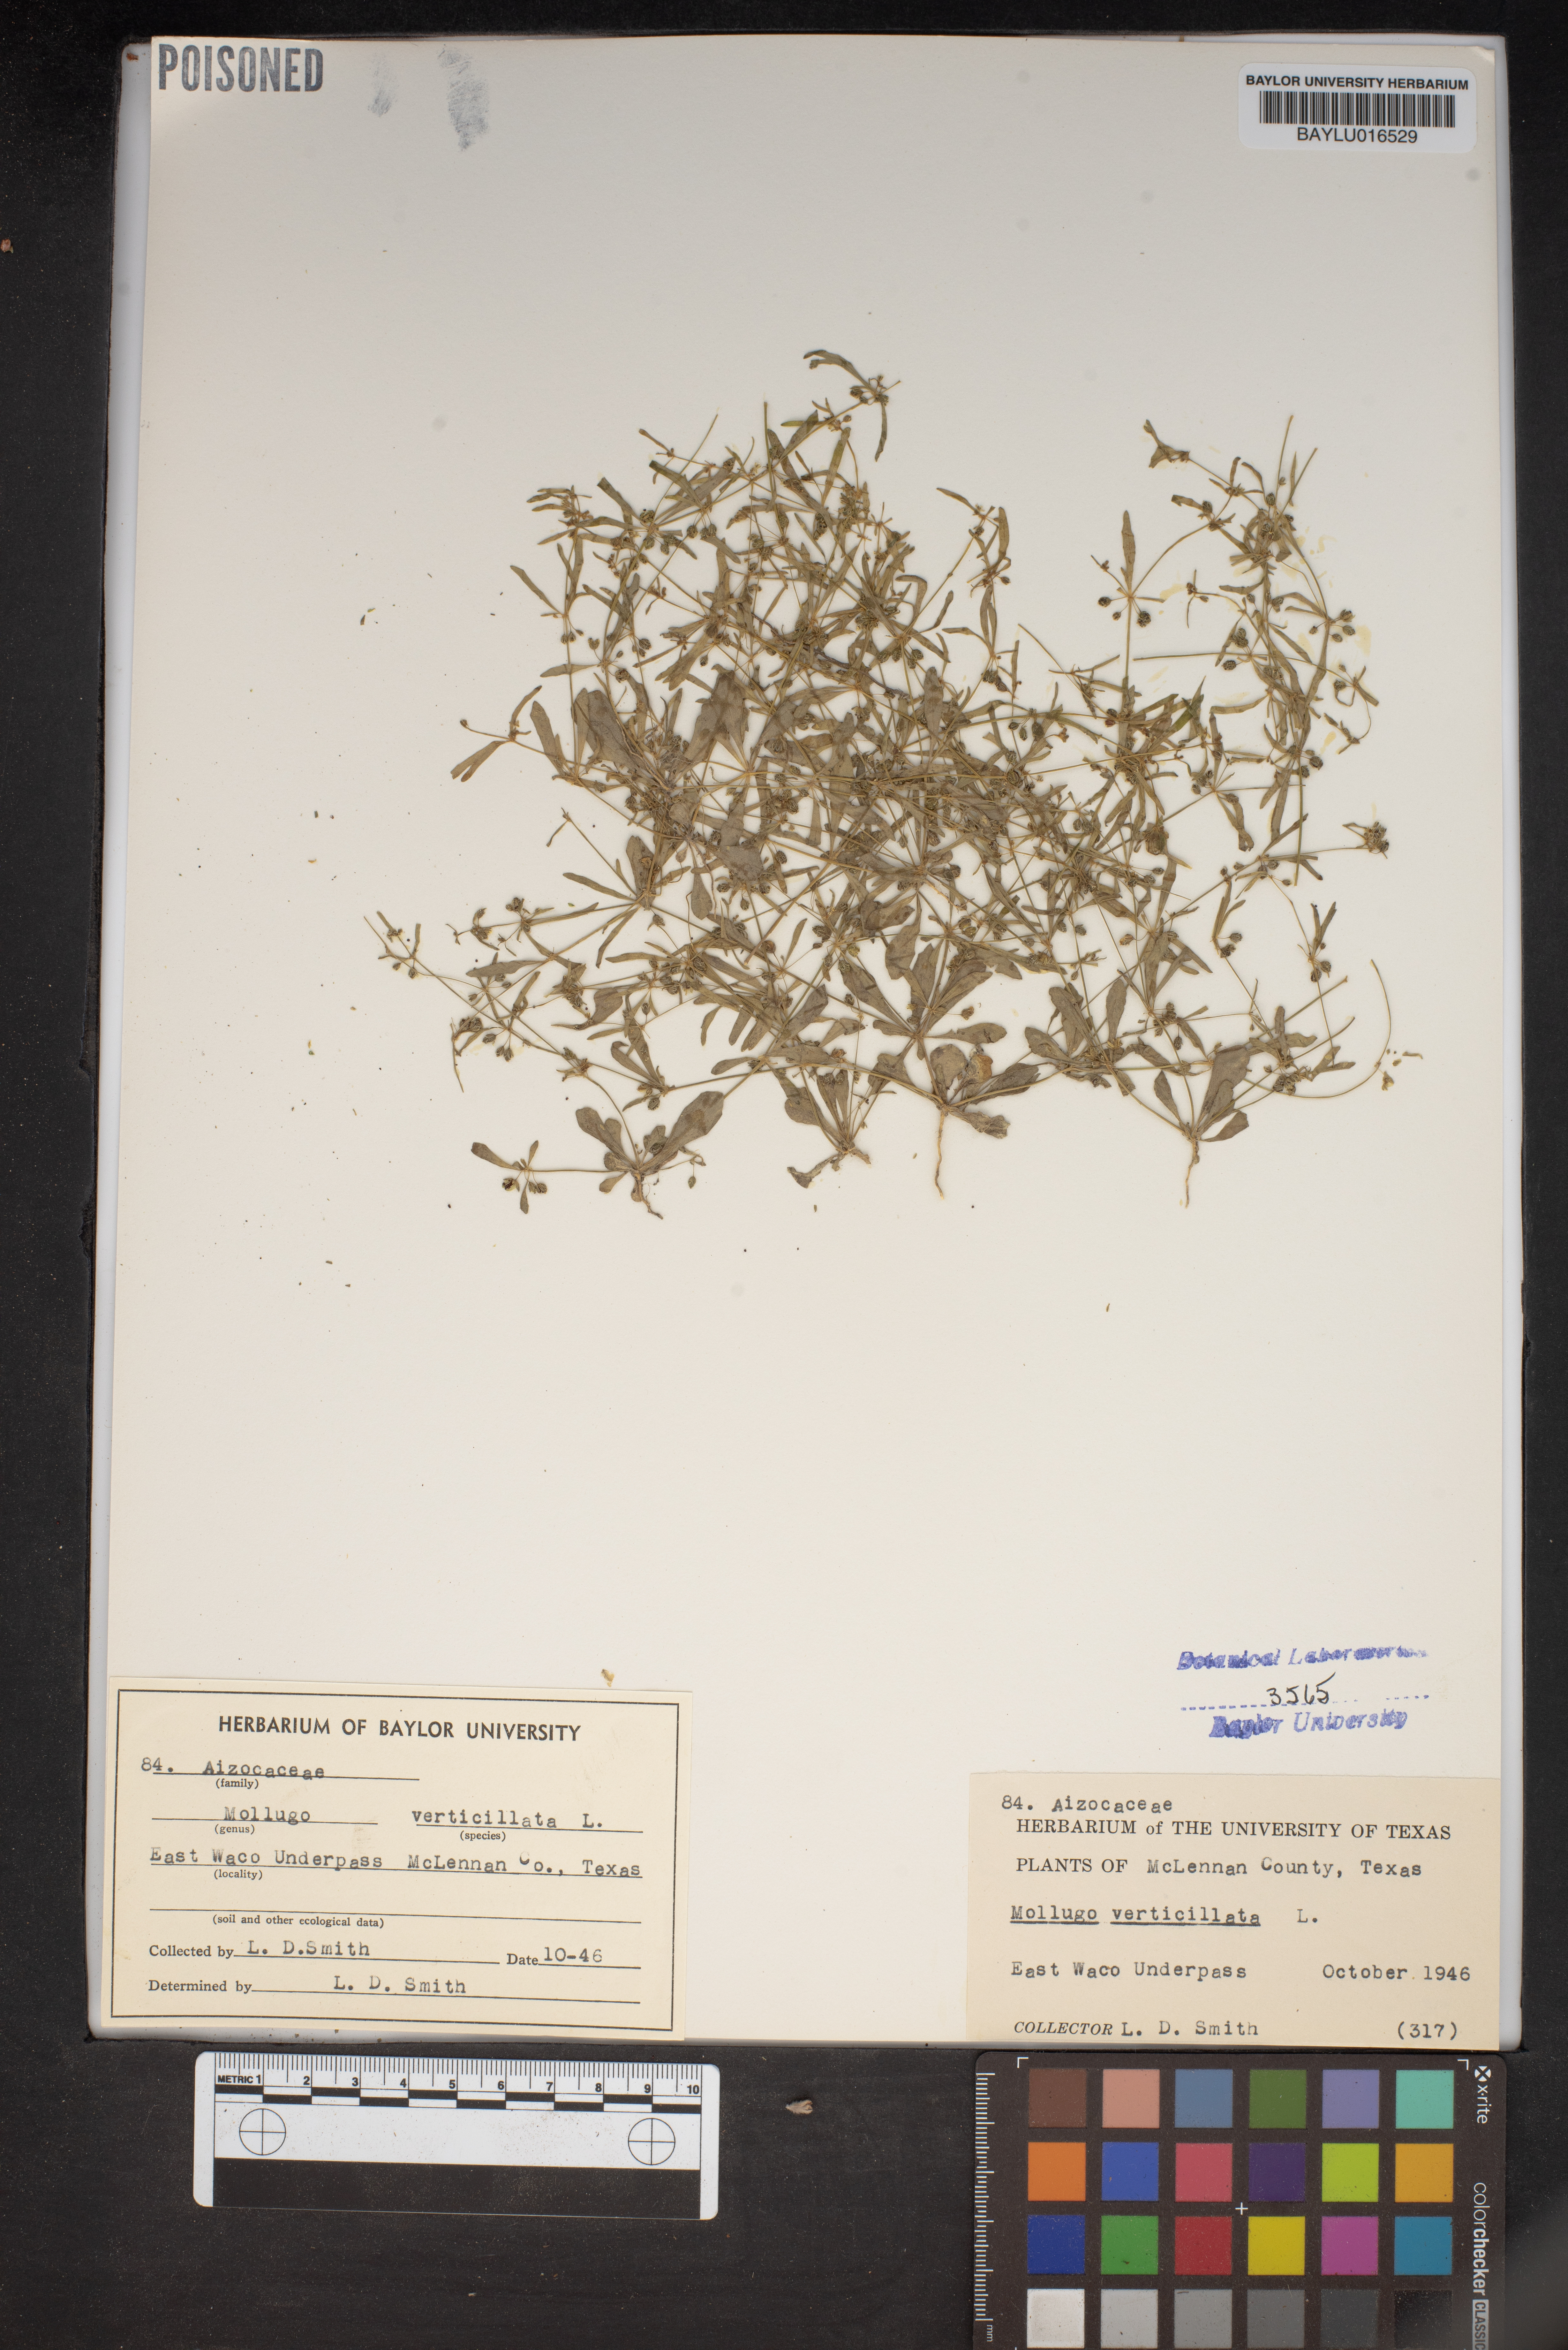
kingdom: Plantae
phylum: Tracheophyta
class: Magnoliopsida
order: Caryophyllales
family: Molluginaceae
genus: Mollugo
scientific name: Mollugo verticillata
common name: Green carpetweed
